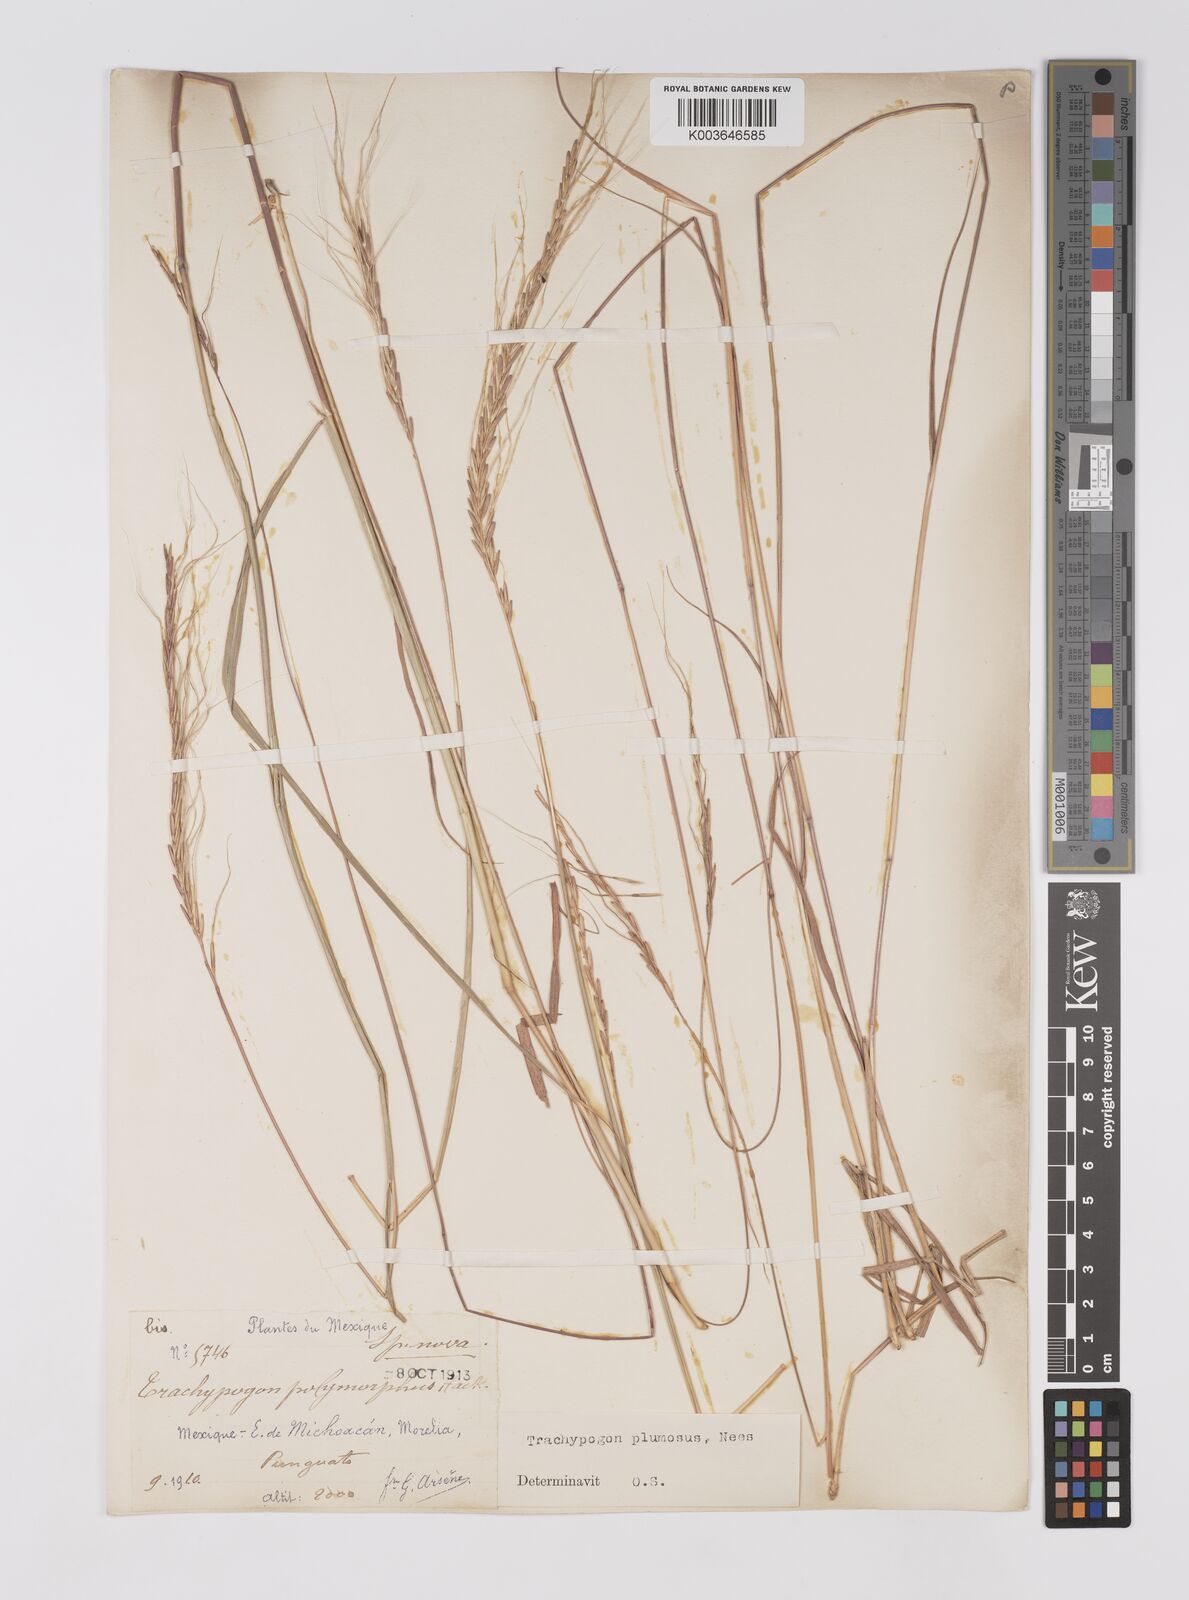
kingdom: Plantae
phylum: Tracheophyta
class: Liliopsida
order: Poales
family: Poaceae
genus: Trachypogon
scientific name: Trachypogon spicatus
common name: Crinkle-awn
